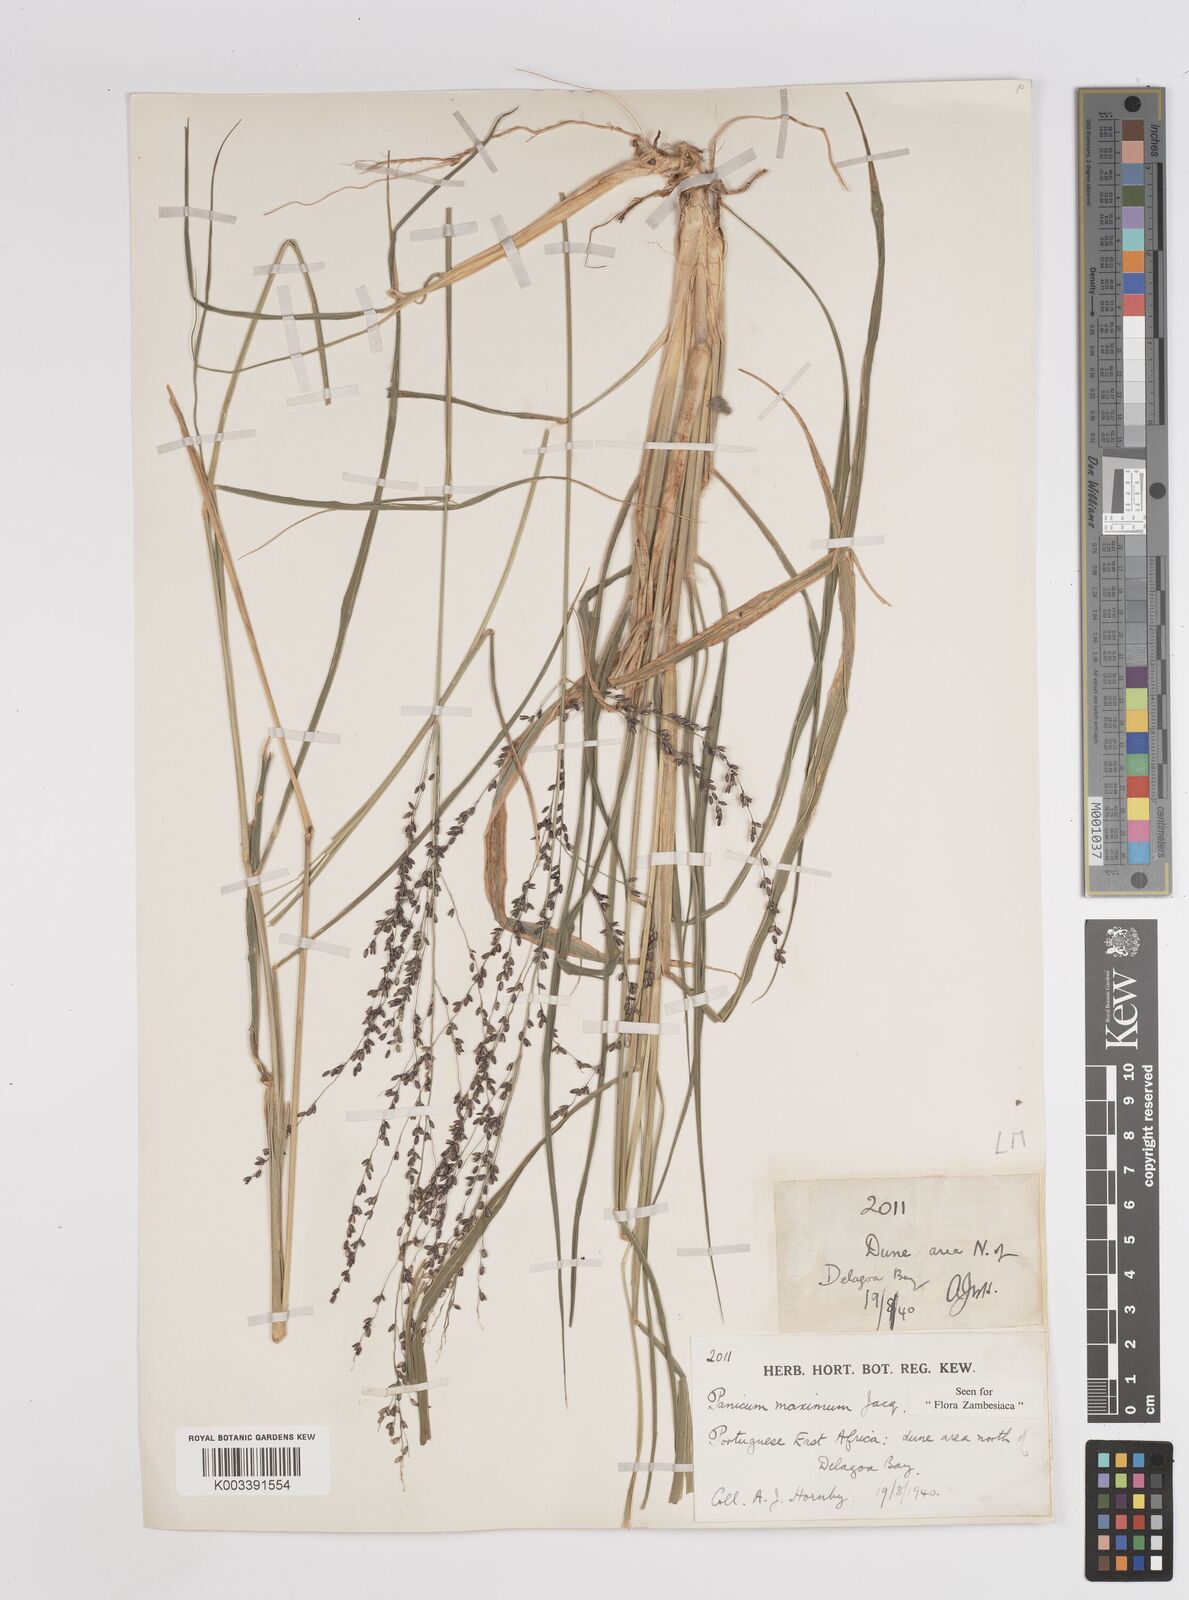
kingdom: Plantae
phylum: Tracheophyta
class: Liliopsida
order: Poales
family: Poaceae
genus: Megathyrsus
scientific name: Megathyrsus maximus
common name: Guineagrass
